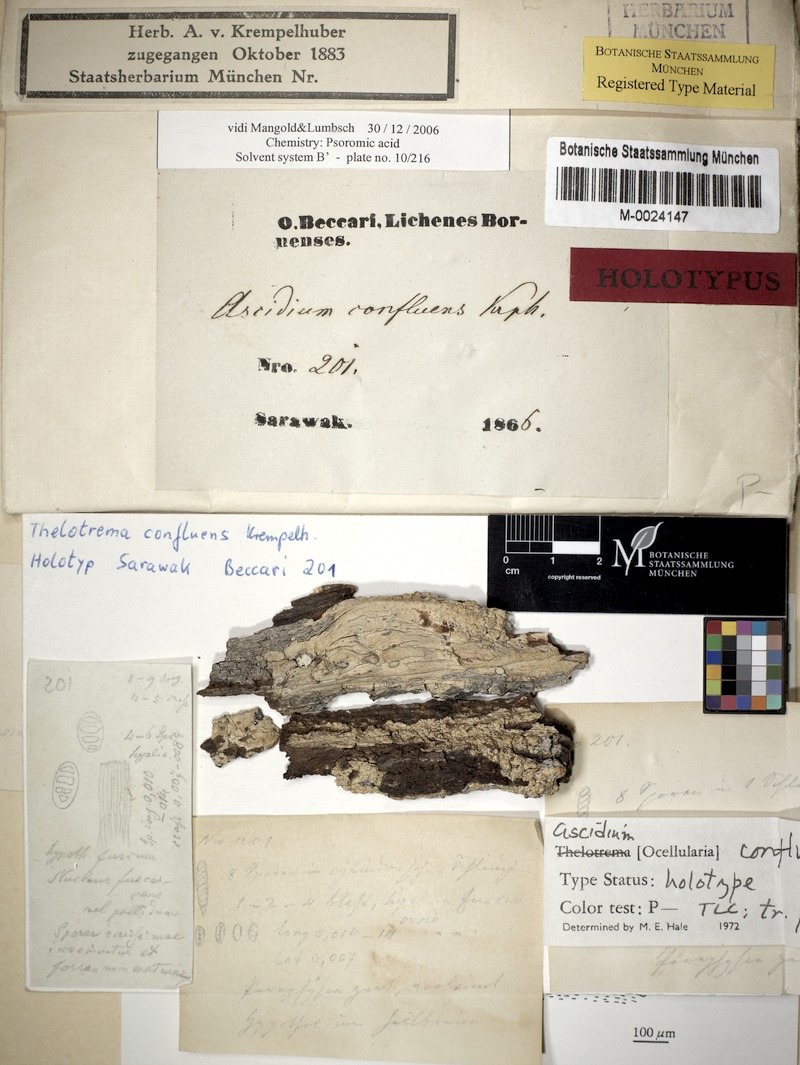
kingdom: Fungi
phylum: Ascomycota
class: Lecanoromycetes
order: Ostropales
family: Graphidaceae
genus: Ocellularia
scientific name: Ocellularia confluens
